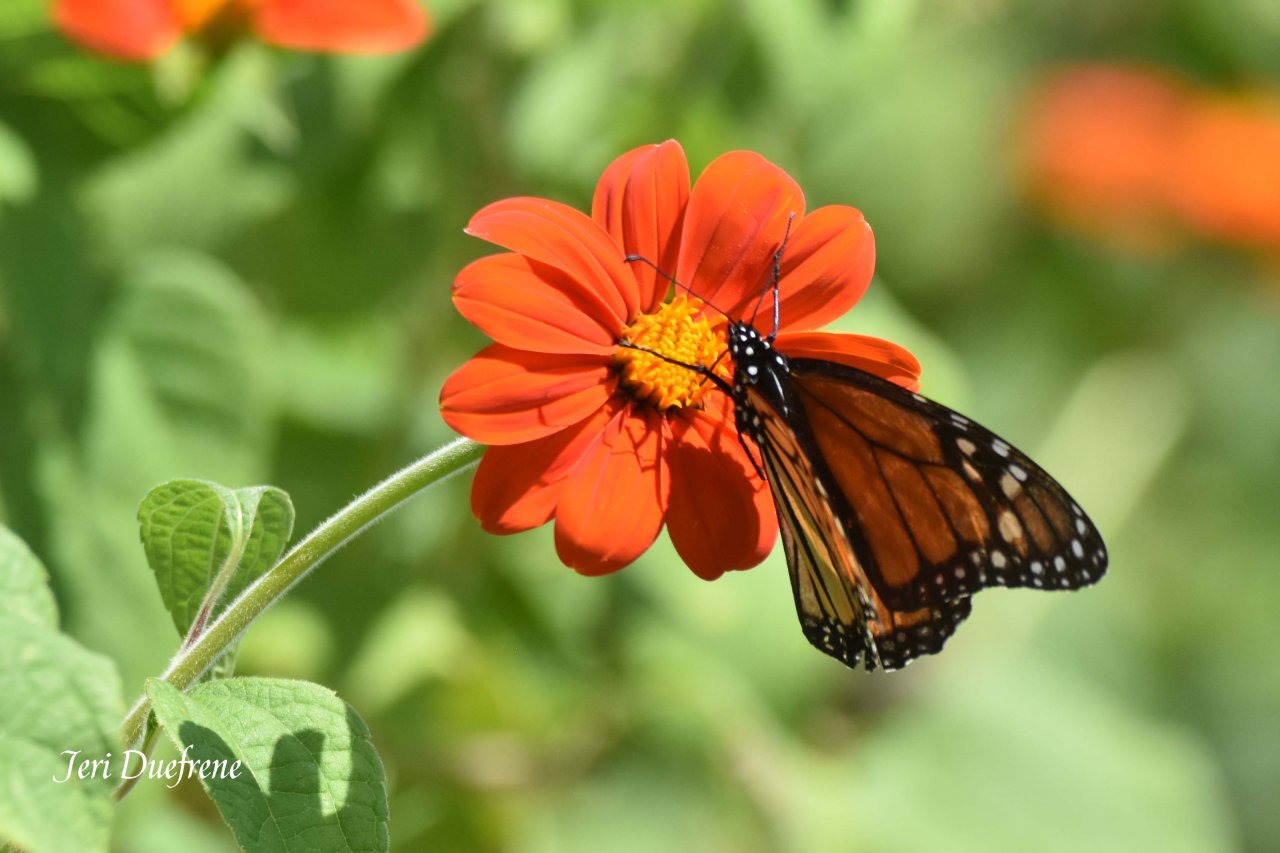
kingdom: Animalia
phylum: Arthropoda
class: Insecta
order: Lepidoptera
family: Nymphalidae
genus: Danaus
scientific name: Danaus plexippus
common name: Monarch
